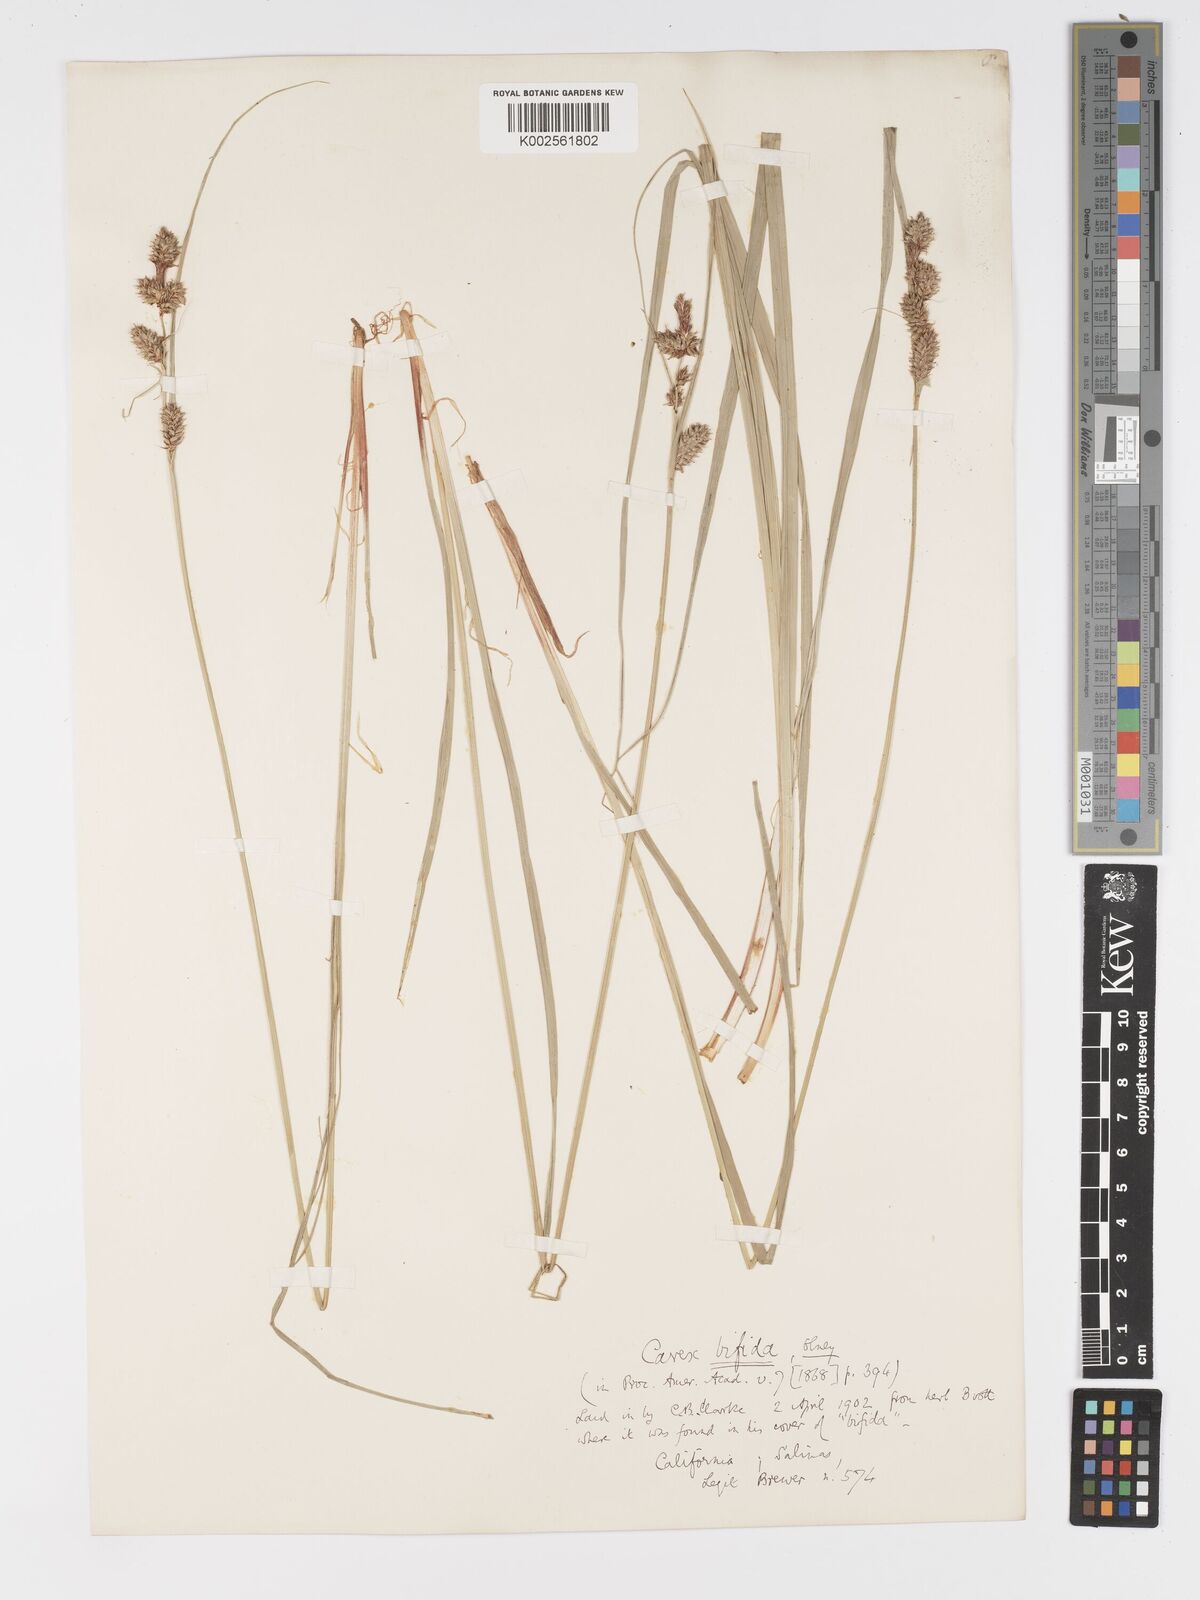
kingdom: Plantae
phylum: Tracheophyta
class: Liliopsida
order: Poales
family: Cyperaceae
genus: Carex
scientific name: Carex serratodens
